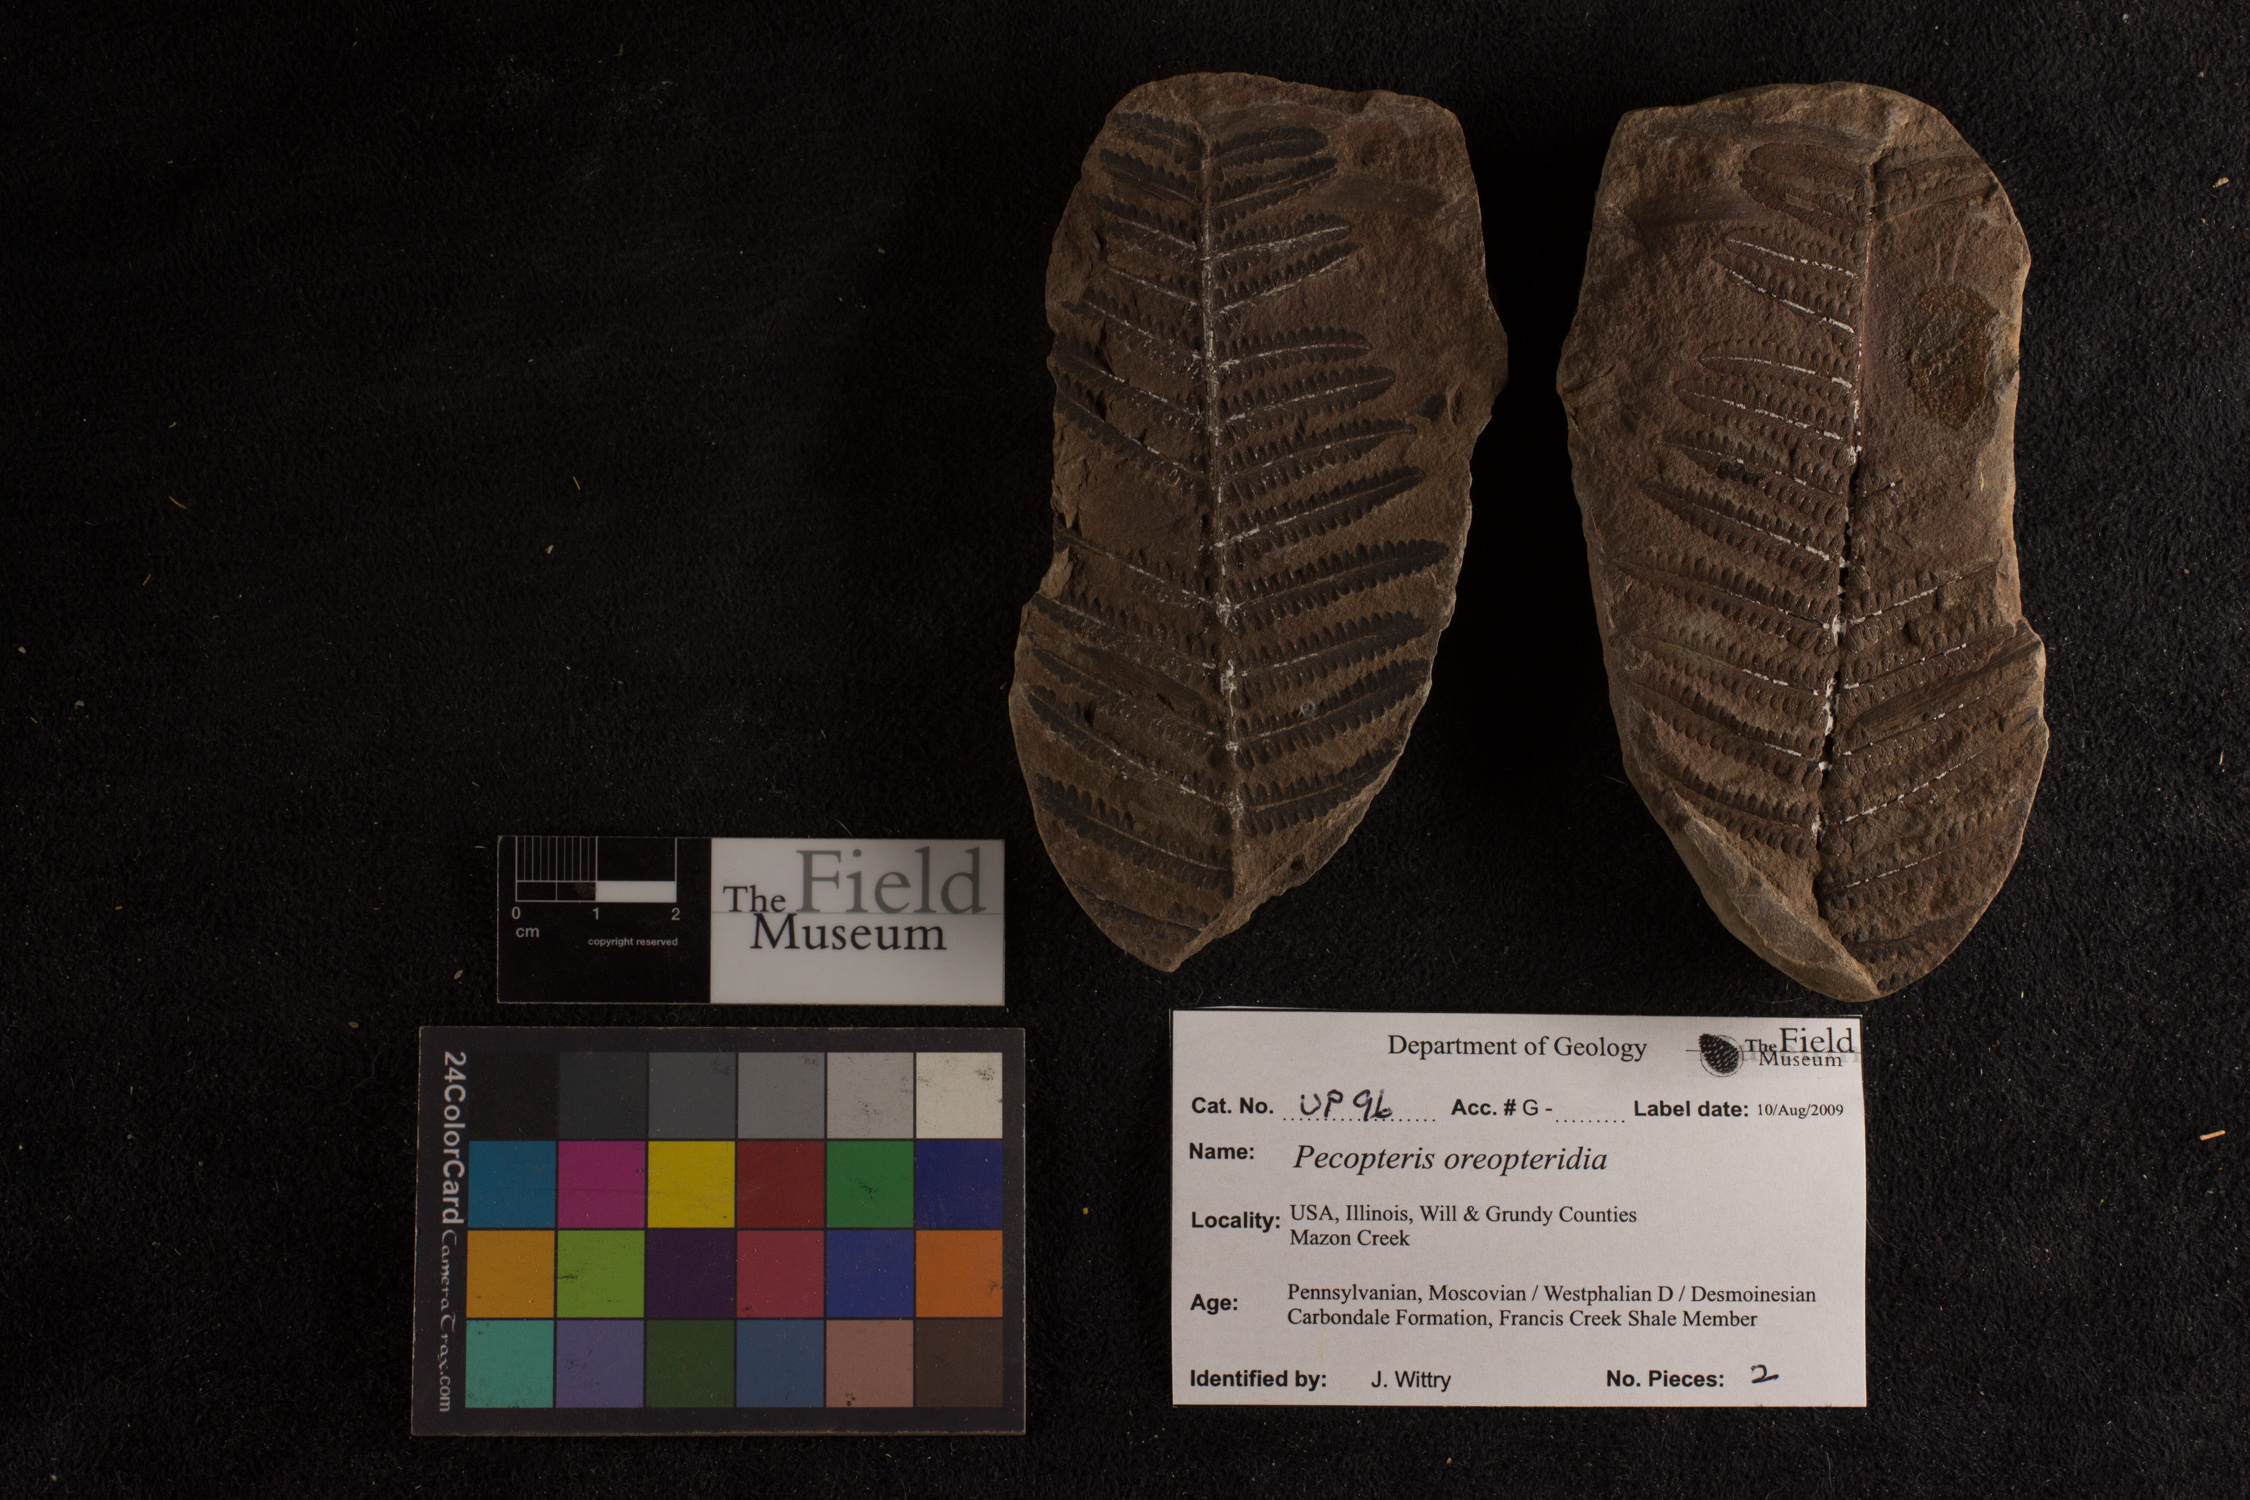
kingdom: Plantae
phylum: Tracheophyta
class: Polypodiopsida
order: Marattiales
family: Asterothecaceae
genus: Pecopteris
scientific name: Pecopteris
